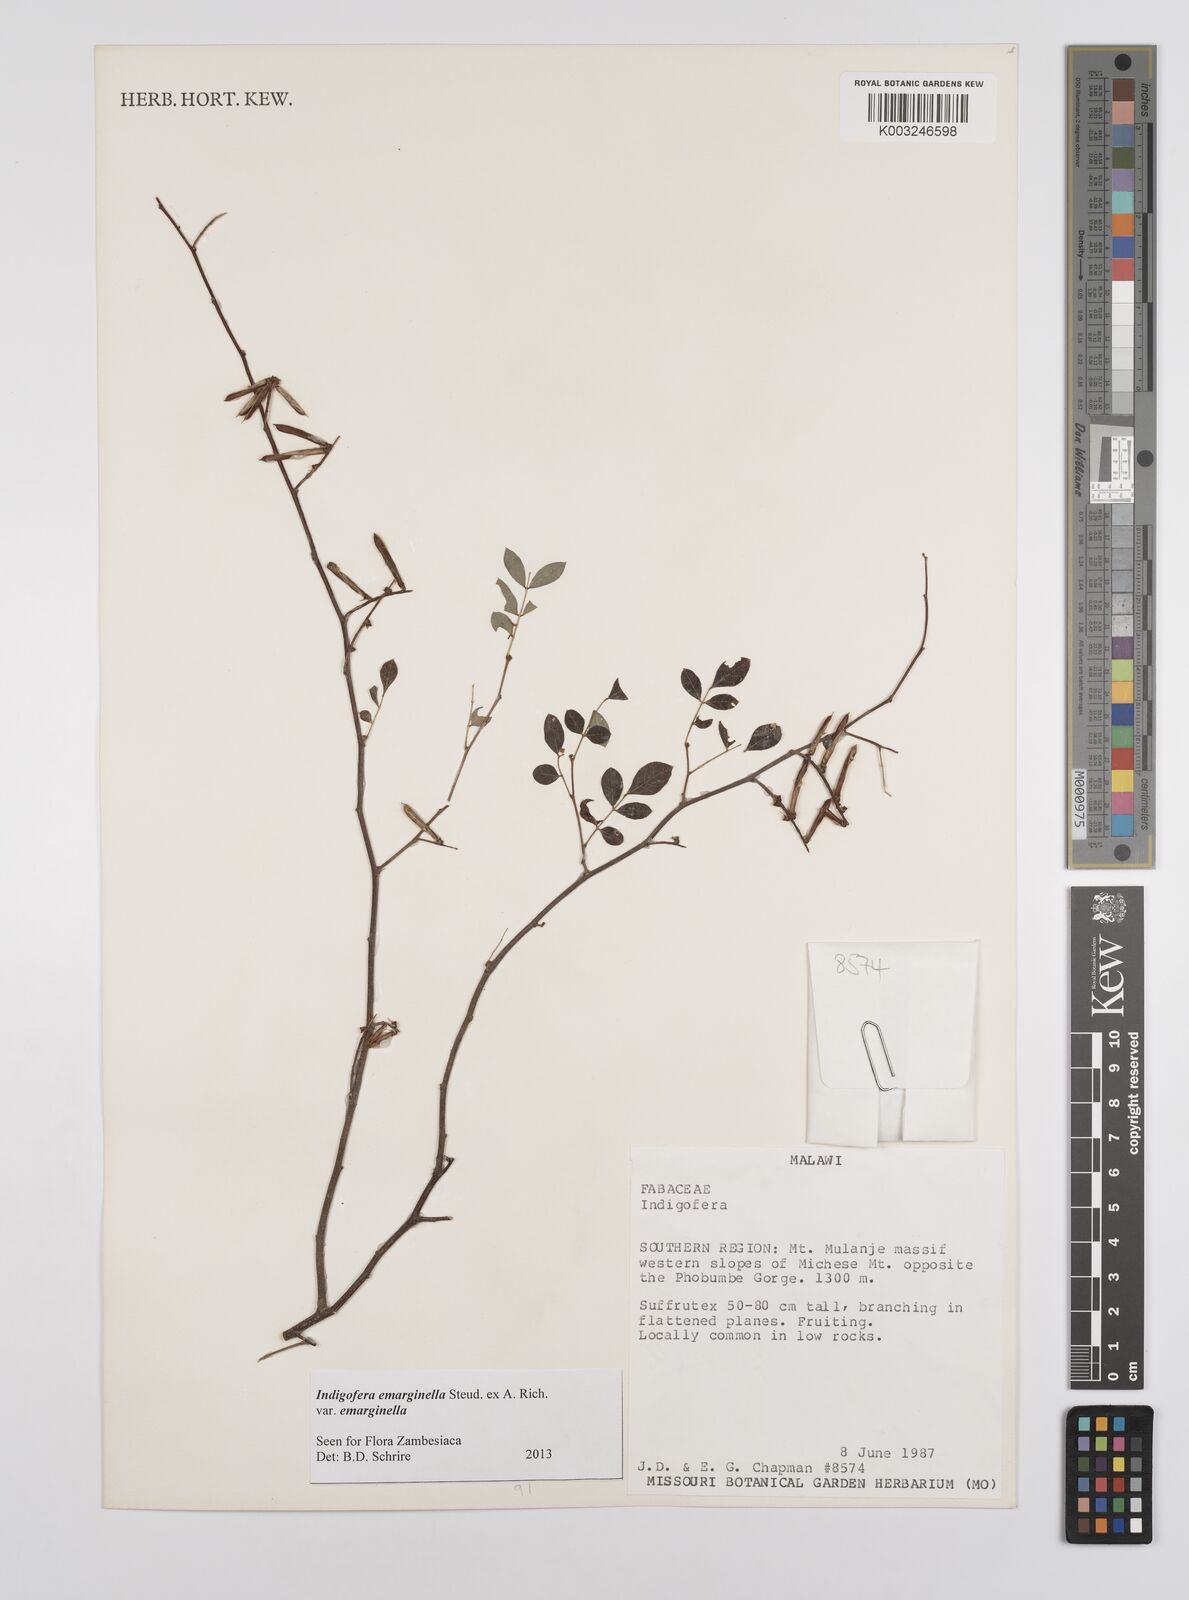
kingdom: Plantae
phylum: Tracheophyta
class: Magnoliopsida
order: Fabales
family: Fabaceae
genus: Indigofera
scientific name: Indigofera emarginella
